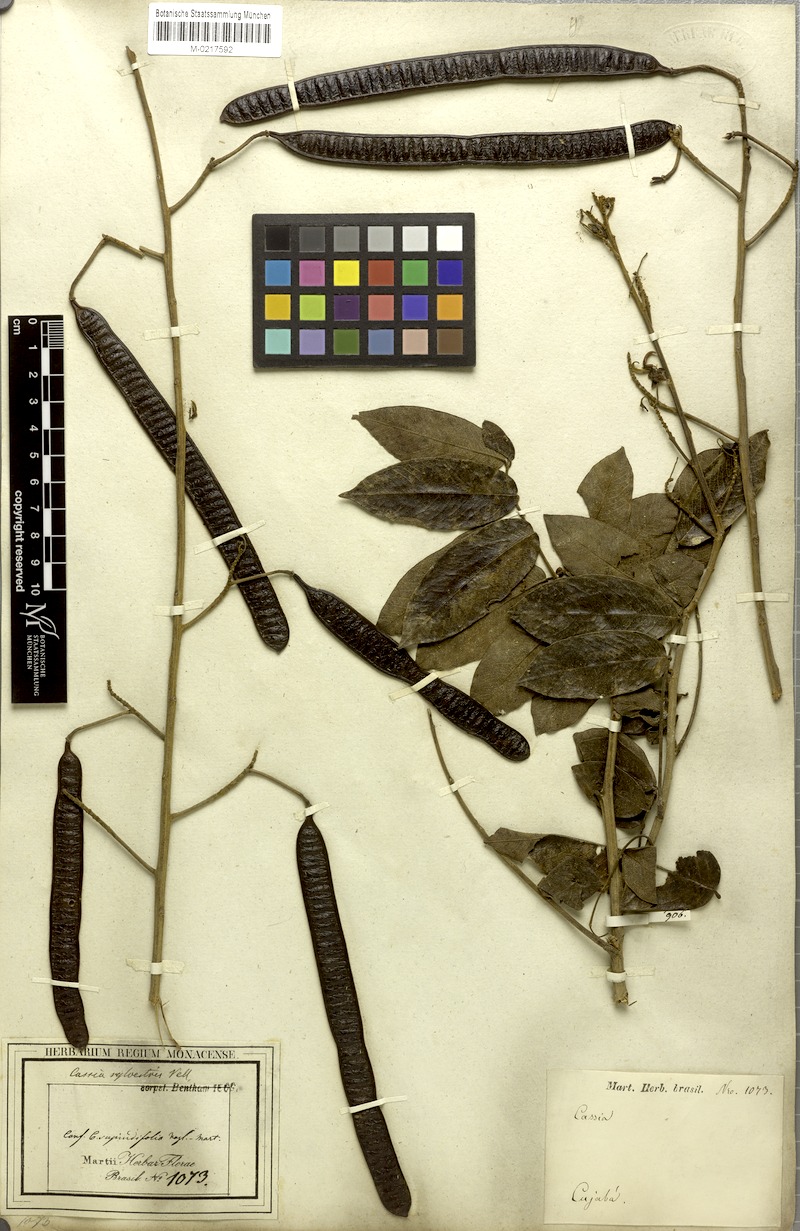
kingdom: Plantae
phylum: Tracheophyta
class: Magnoliopsida
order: Fabales
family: Fabaceae
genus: Senna
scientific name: Senna silvestris
